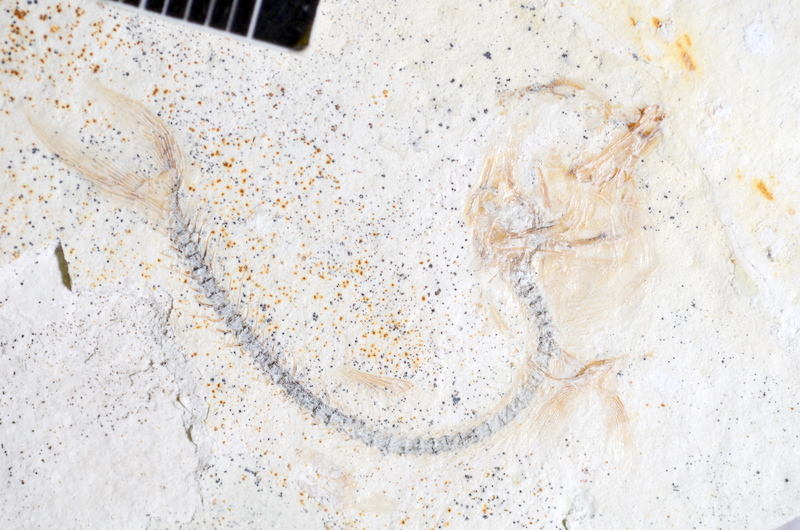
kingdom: Animalia
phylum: Chordata
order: Salmoniformes
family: Orthogonikleithridae
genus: Orthogonikleithrus
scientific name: Orthogonikleithrus hoelli
